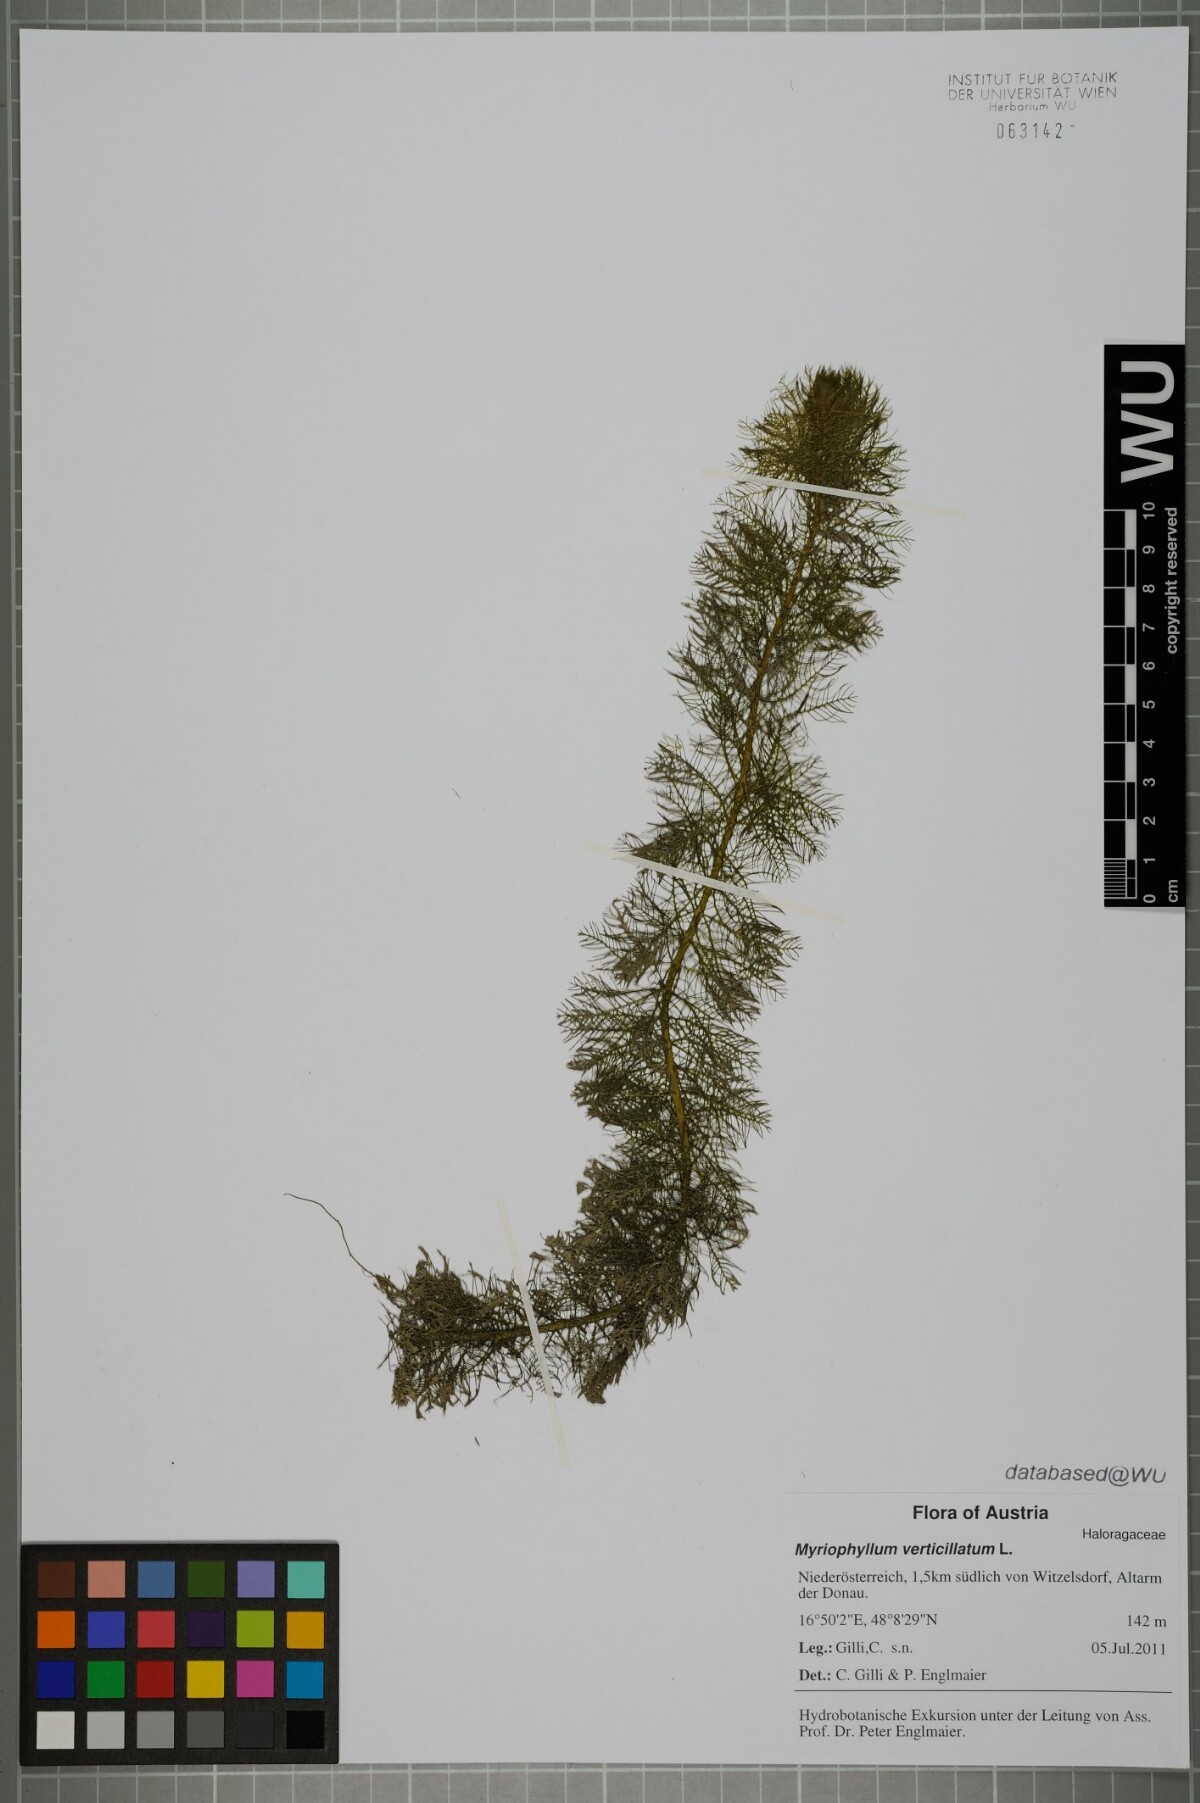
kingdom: Plantae
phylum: Tracheophyta
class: Magnoliopsida
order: Saxifragales
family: Haloragaceae
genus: Myriophyllum
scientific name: Myriophyllum verticillatum
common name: Whorled water-milfoil
